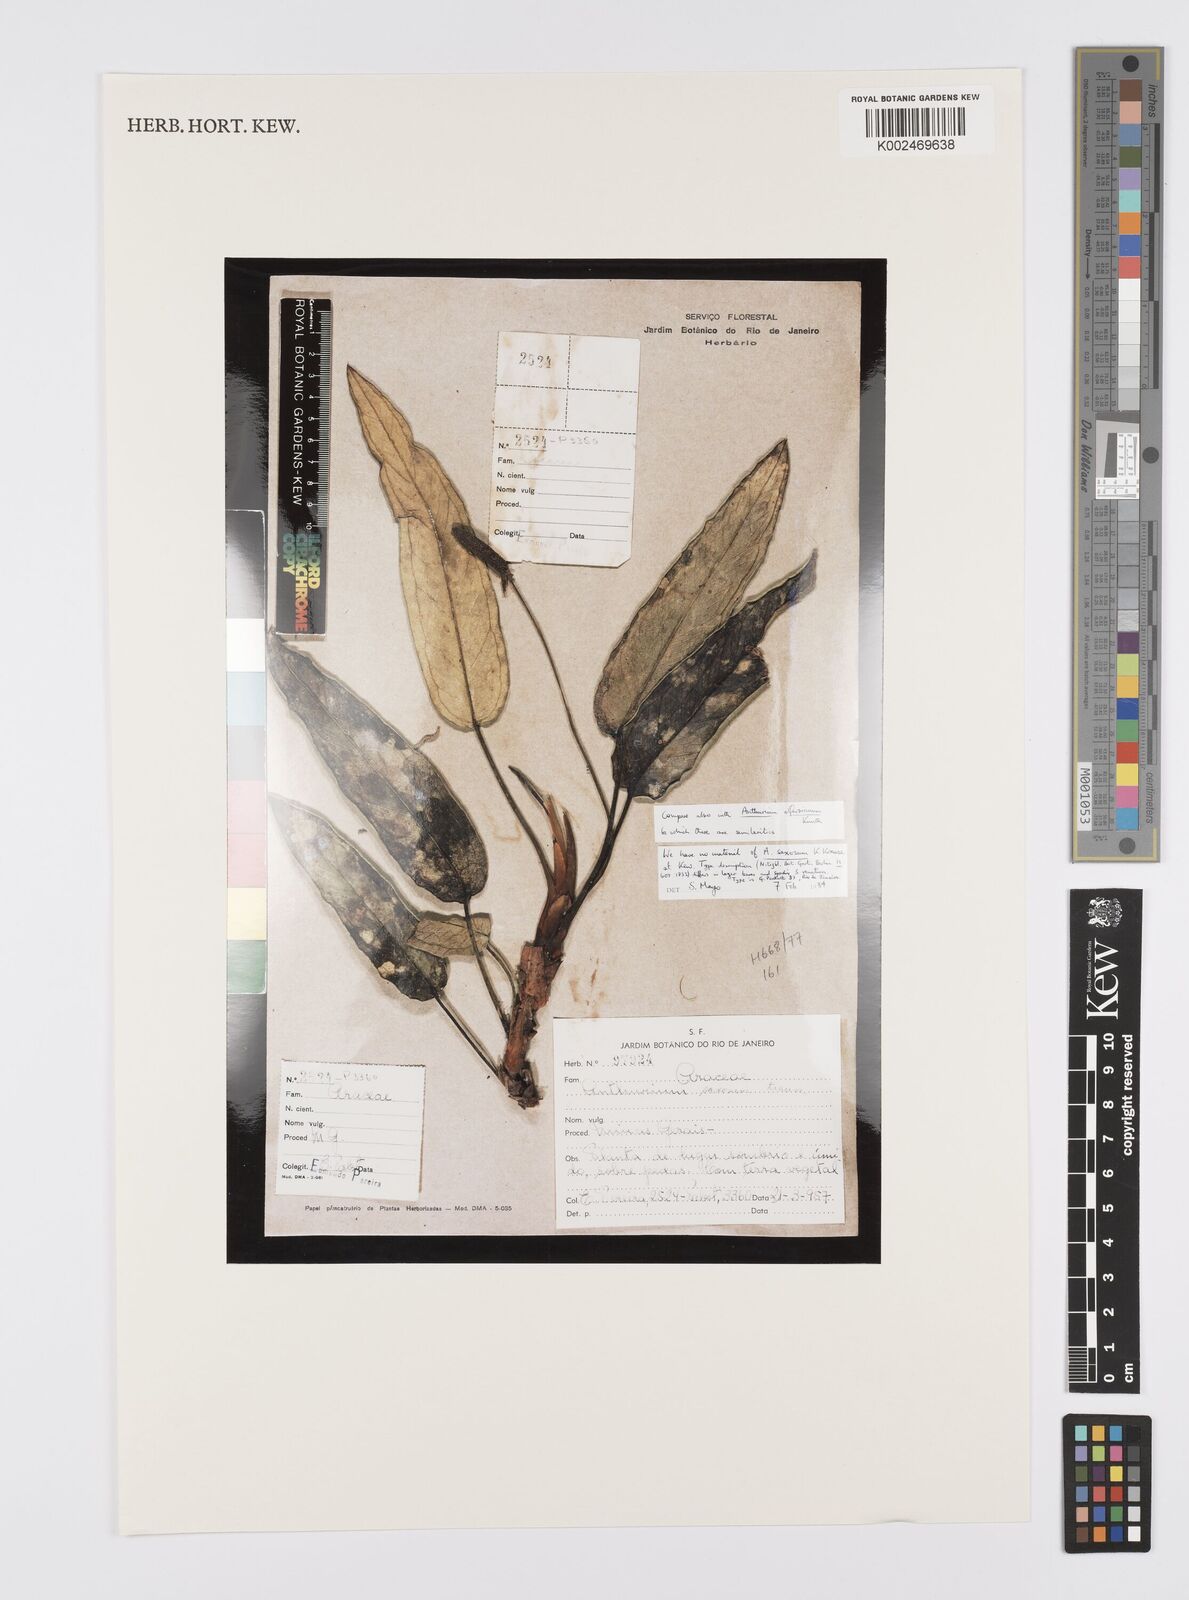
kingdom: Plantae
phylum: Tracheophyta
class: Liliopsida
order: Alismatales
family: Araceae
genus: Anthurium
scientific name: Anthurium parasiticum
